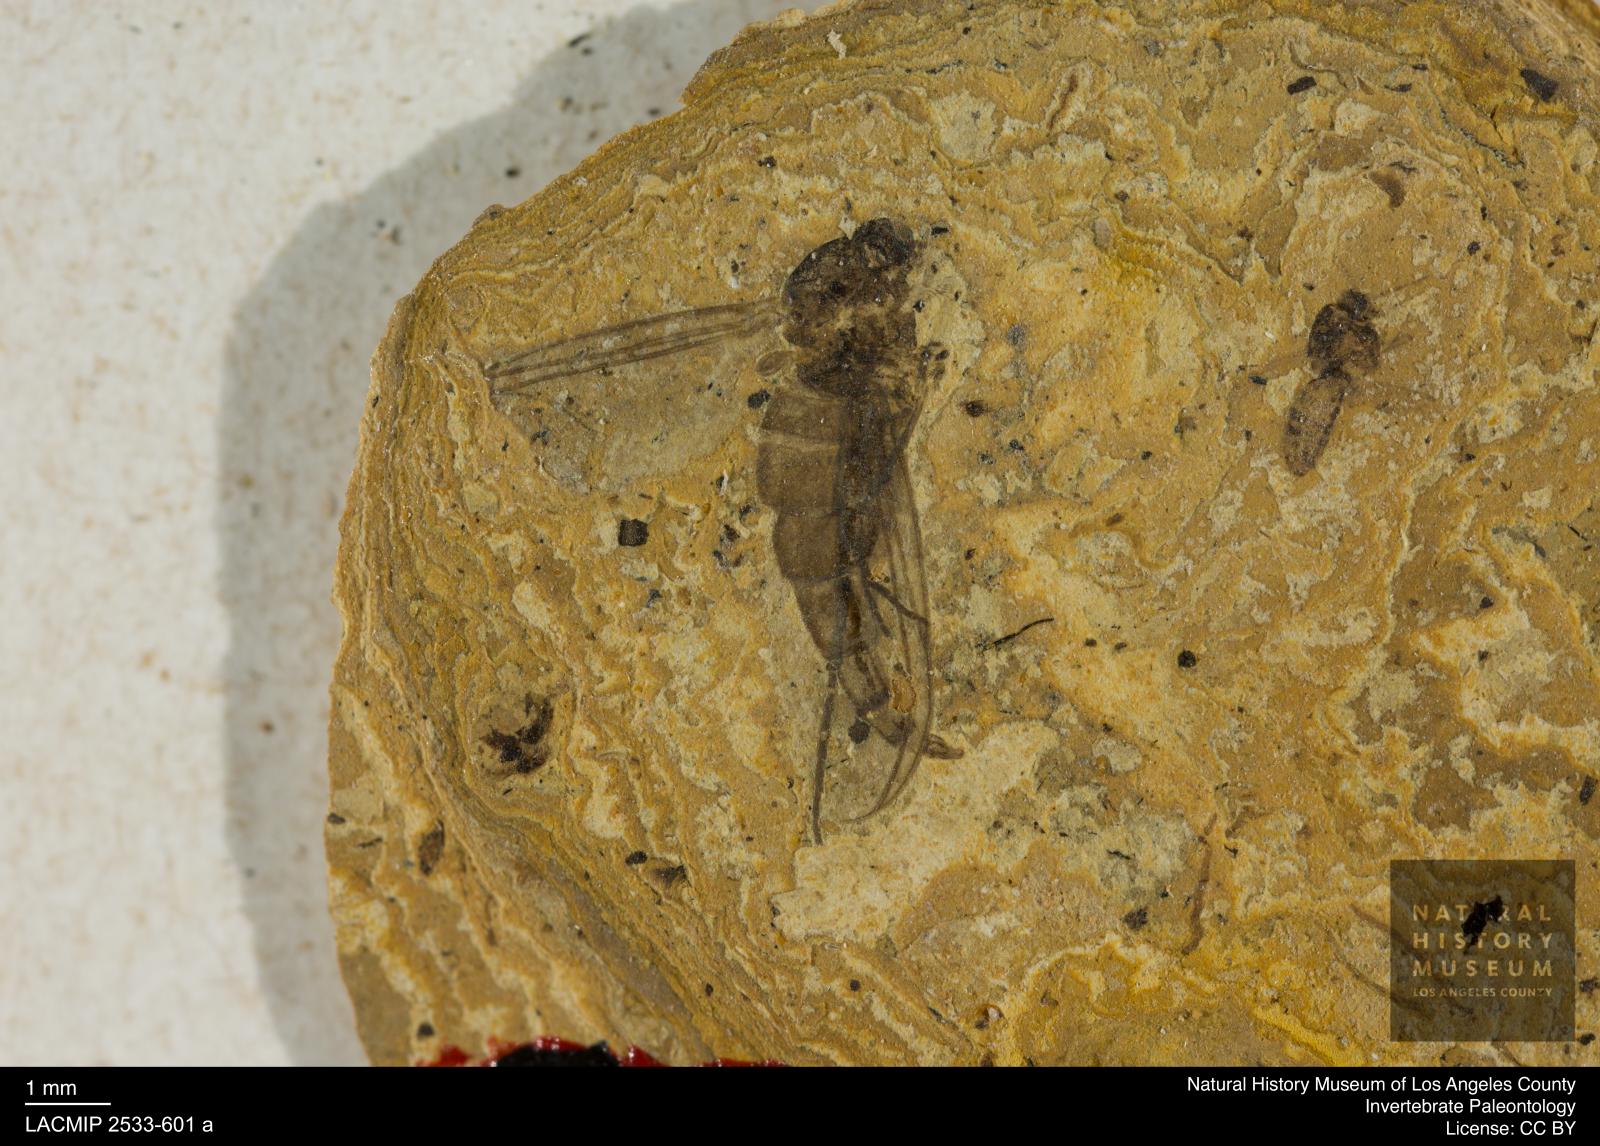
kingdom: Animalia
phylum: Arthropoda
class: Insecta
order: Diptera
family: Sciaridae
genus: Sciara
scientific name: Sciara pelidua
